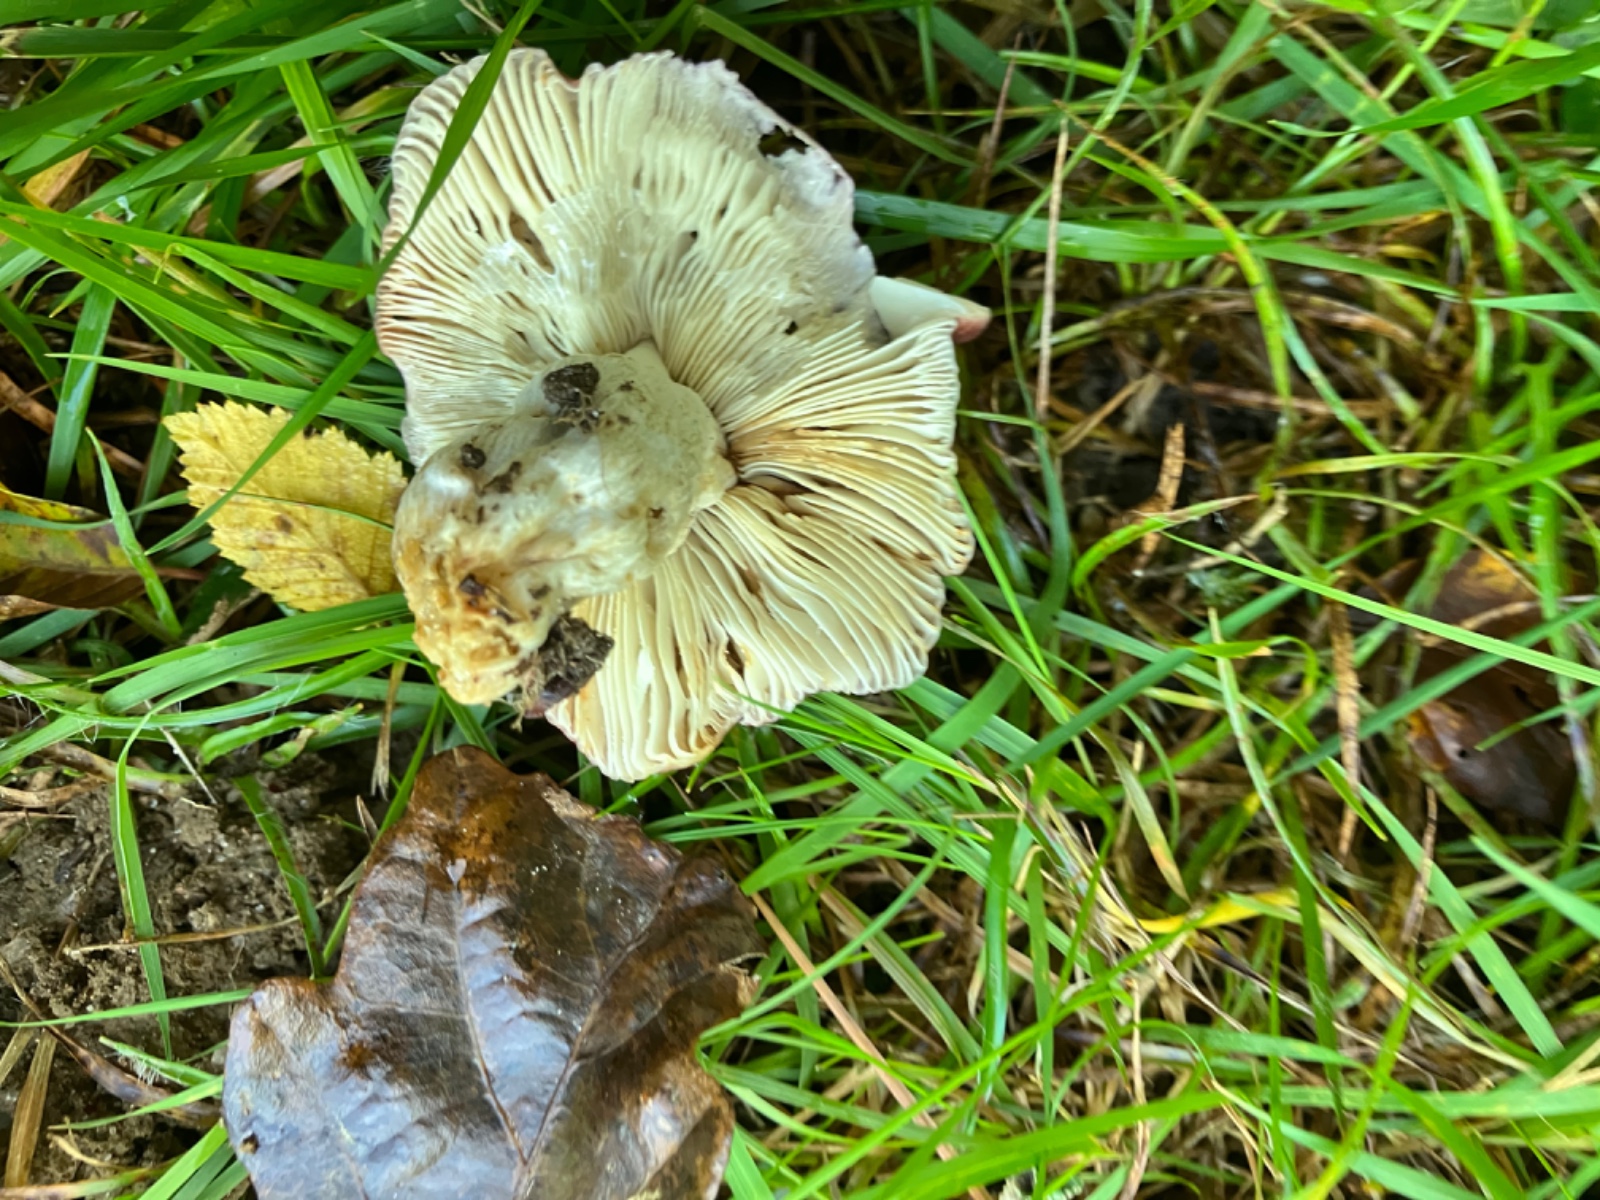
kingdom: Fungi
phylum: Basidiomycota
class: Agaricomycetes
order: Russulales
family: Russulaceae
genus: Russula
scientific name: Russula
